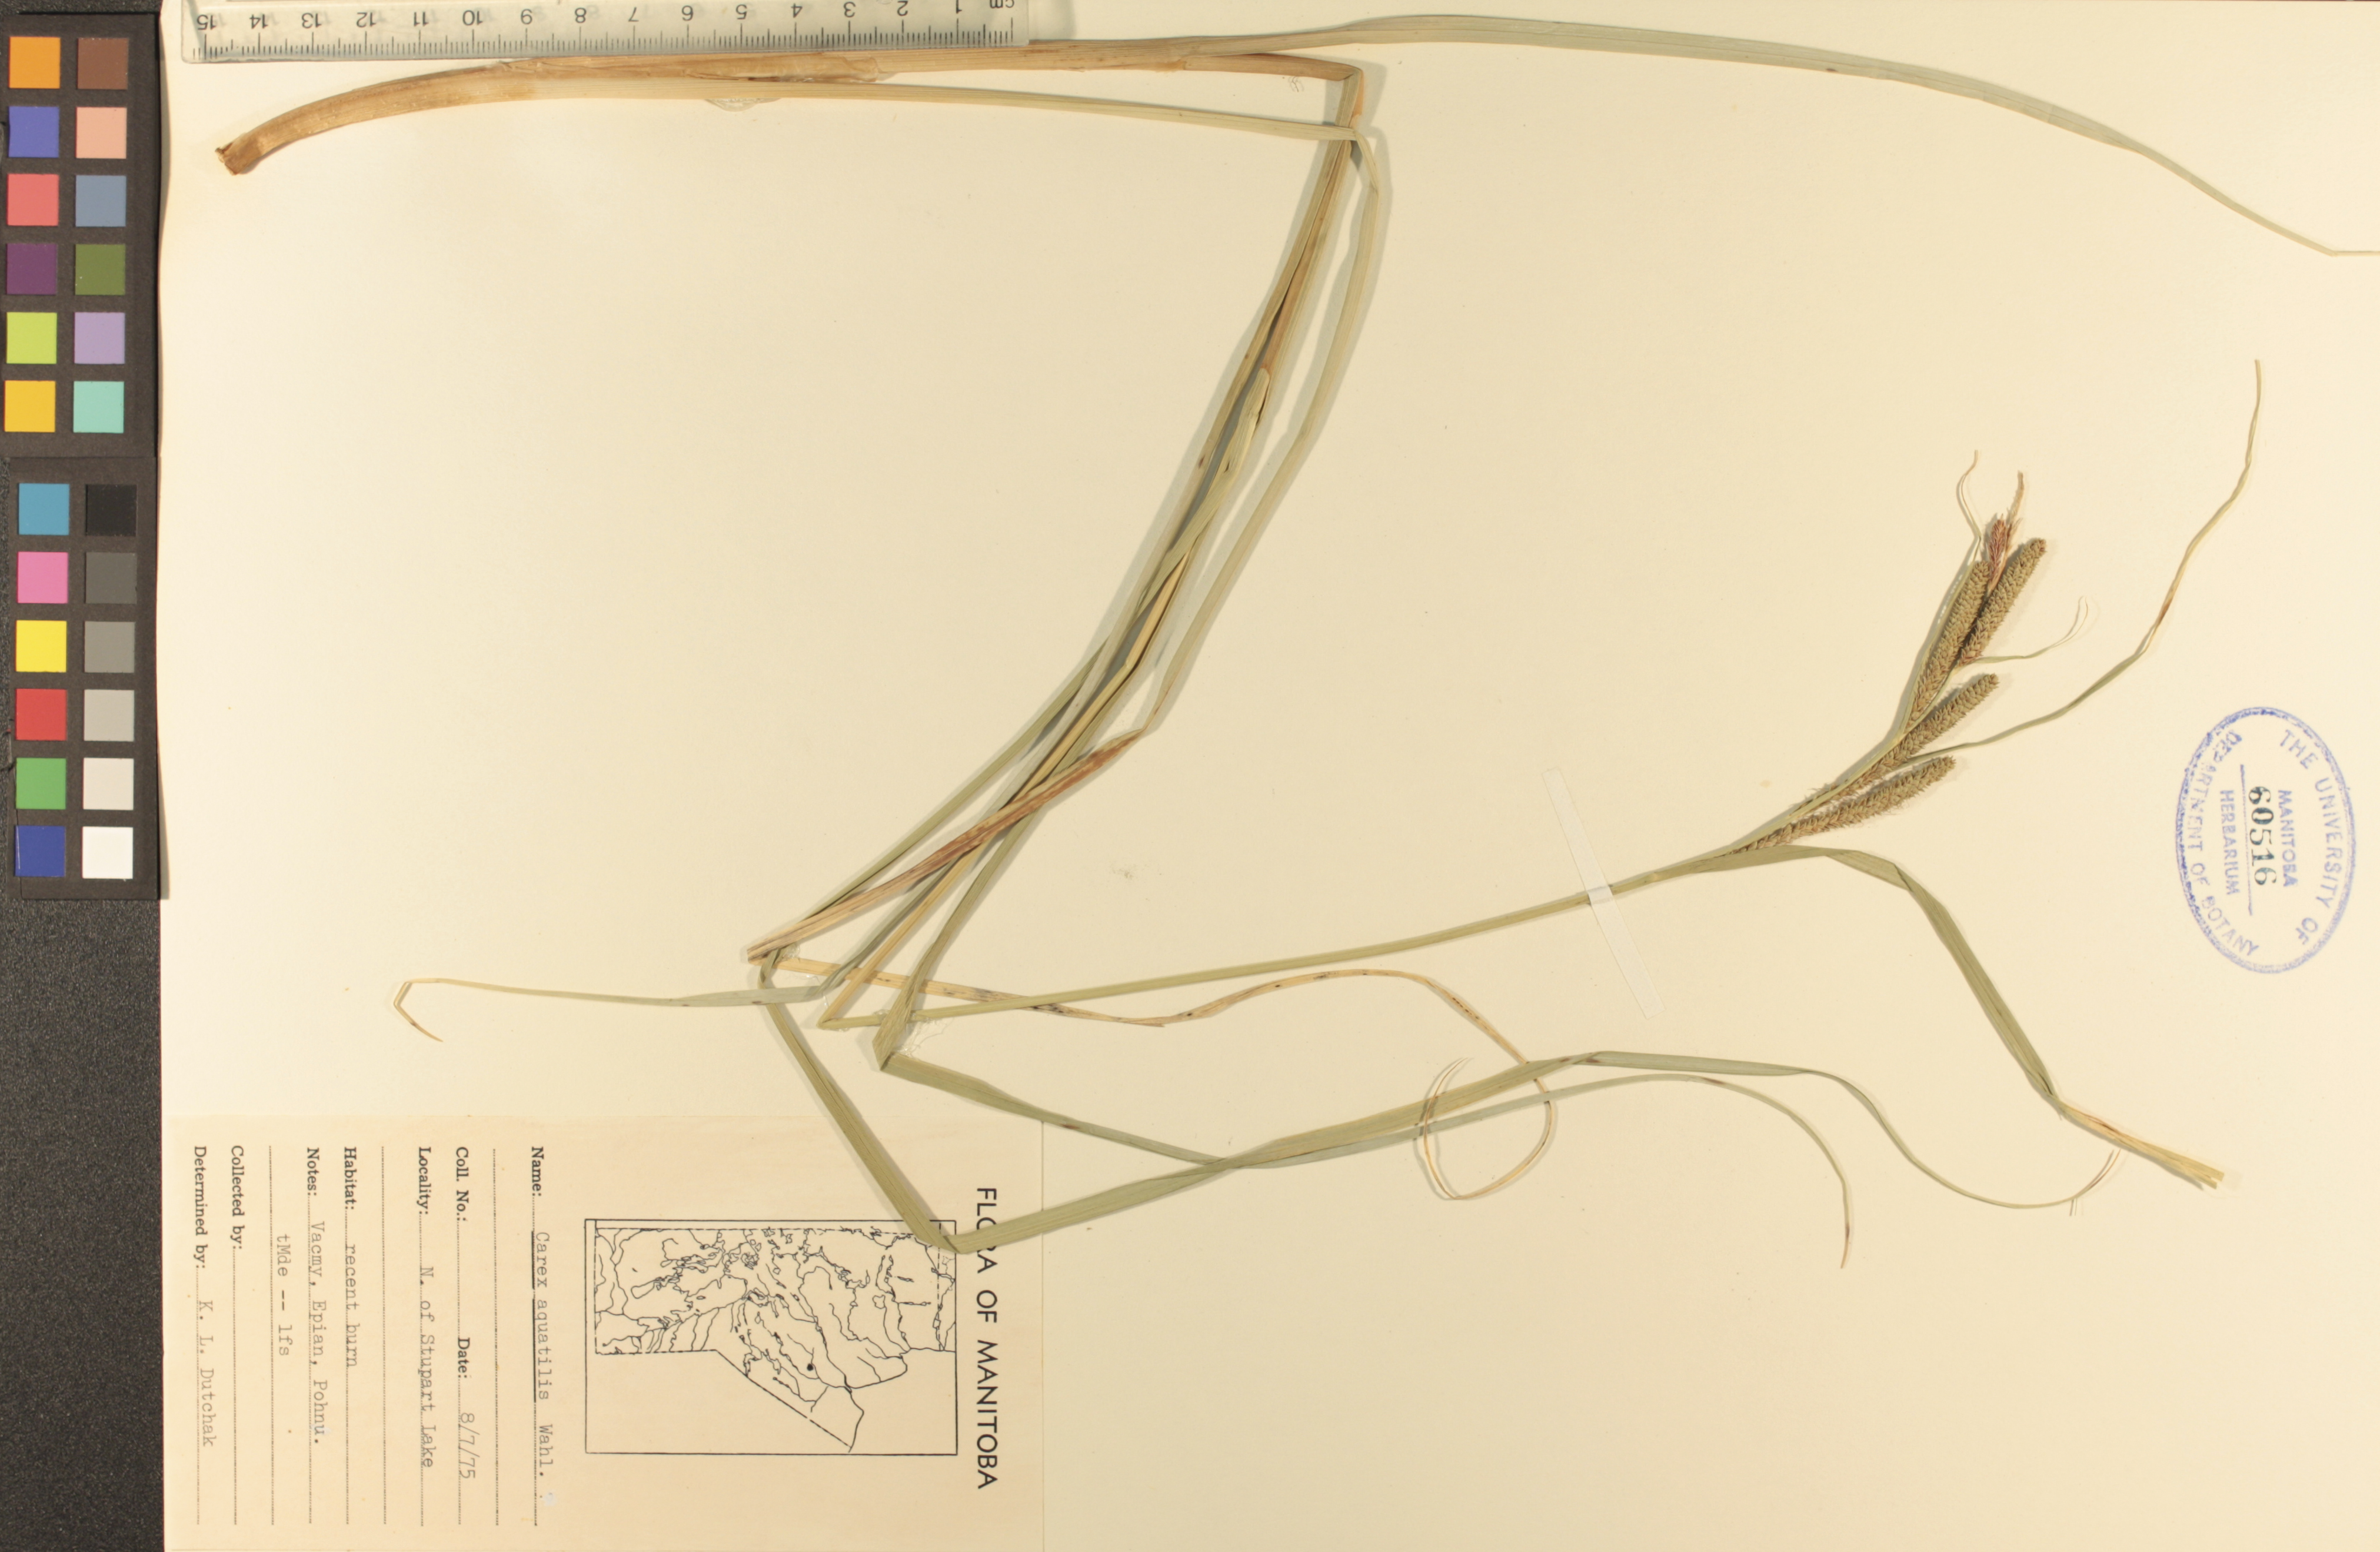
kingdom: Plantae
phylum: Tracheophyta
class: Liliopsida
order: Poales
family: Cyperaceae
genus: Carex
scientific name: Carex aquatilis
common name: Water sedge
